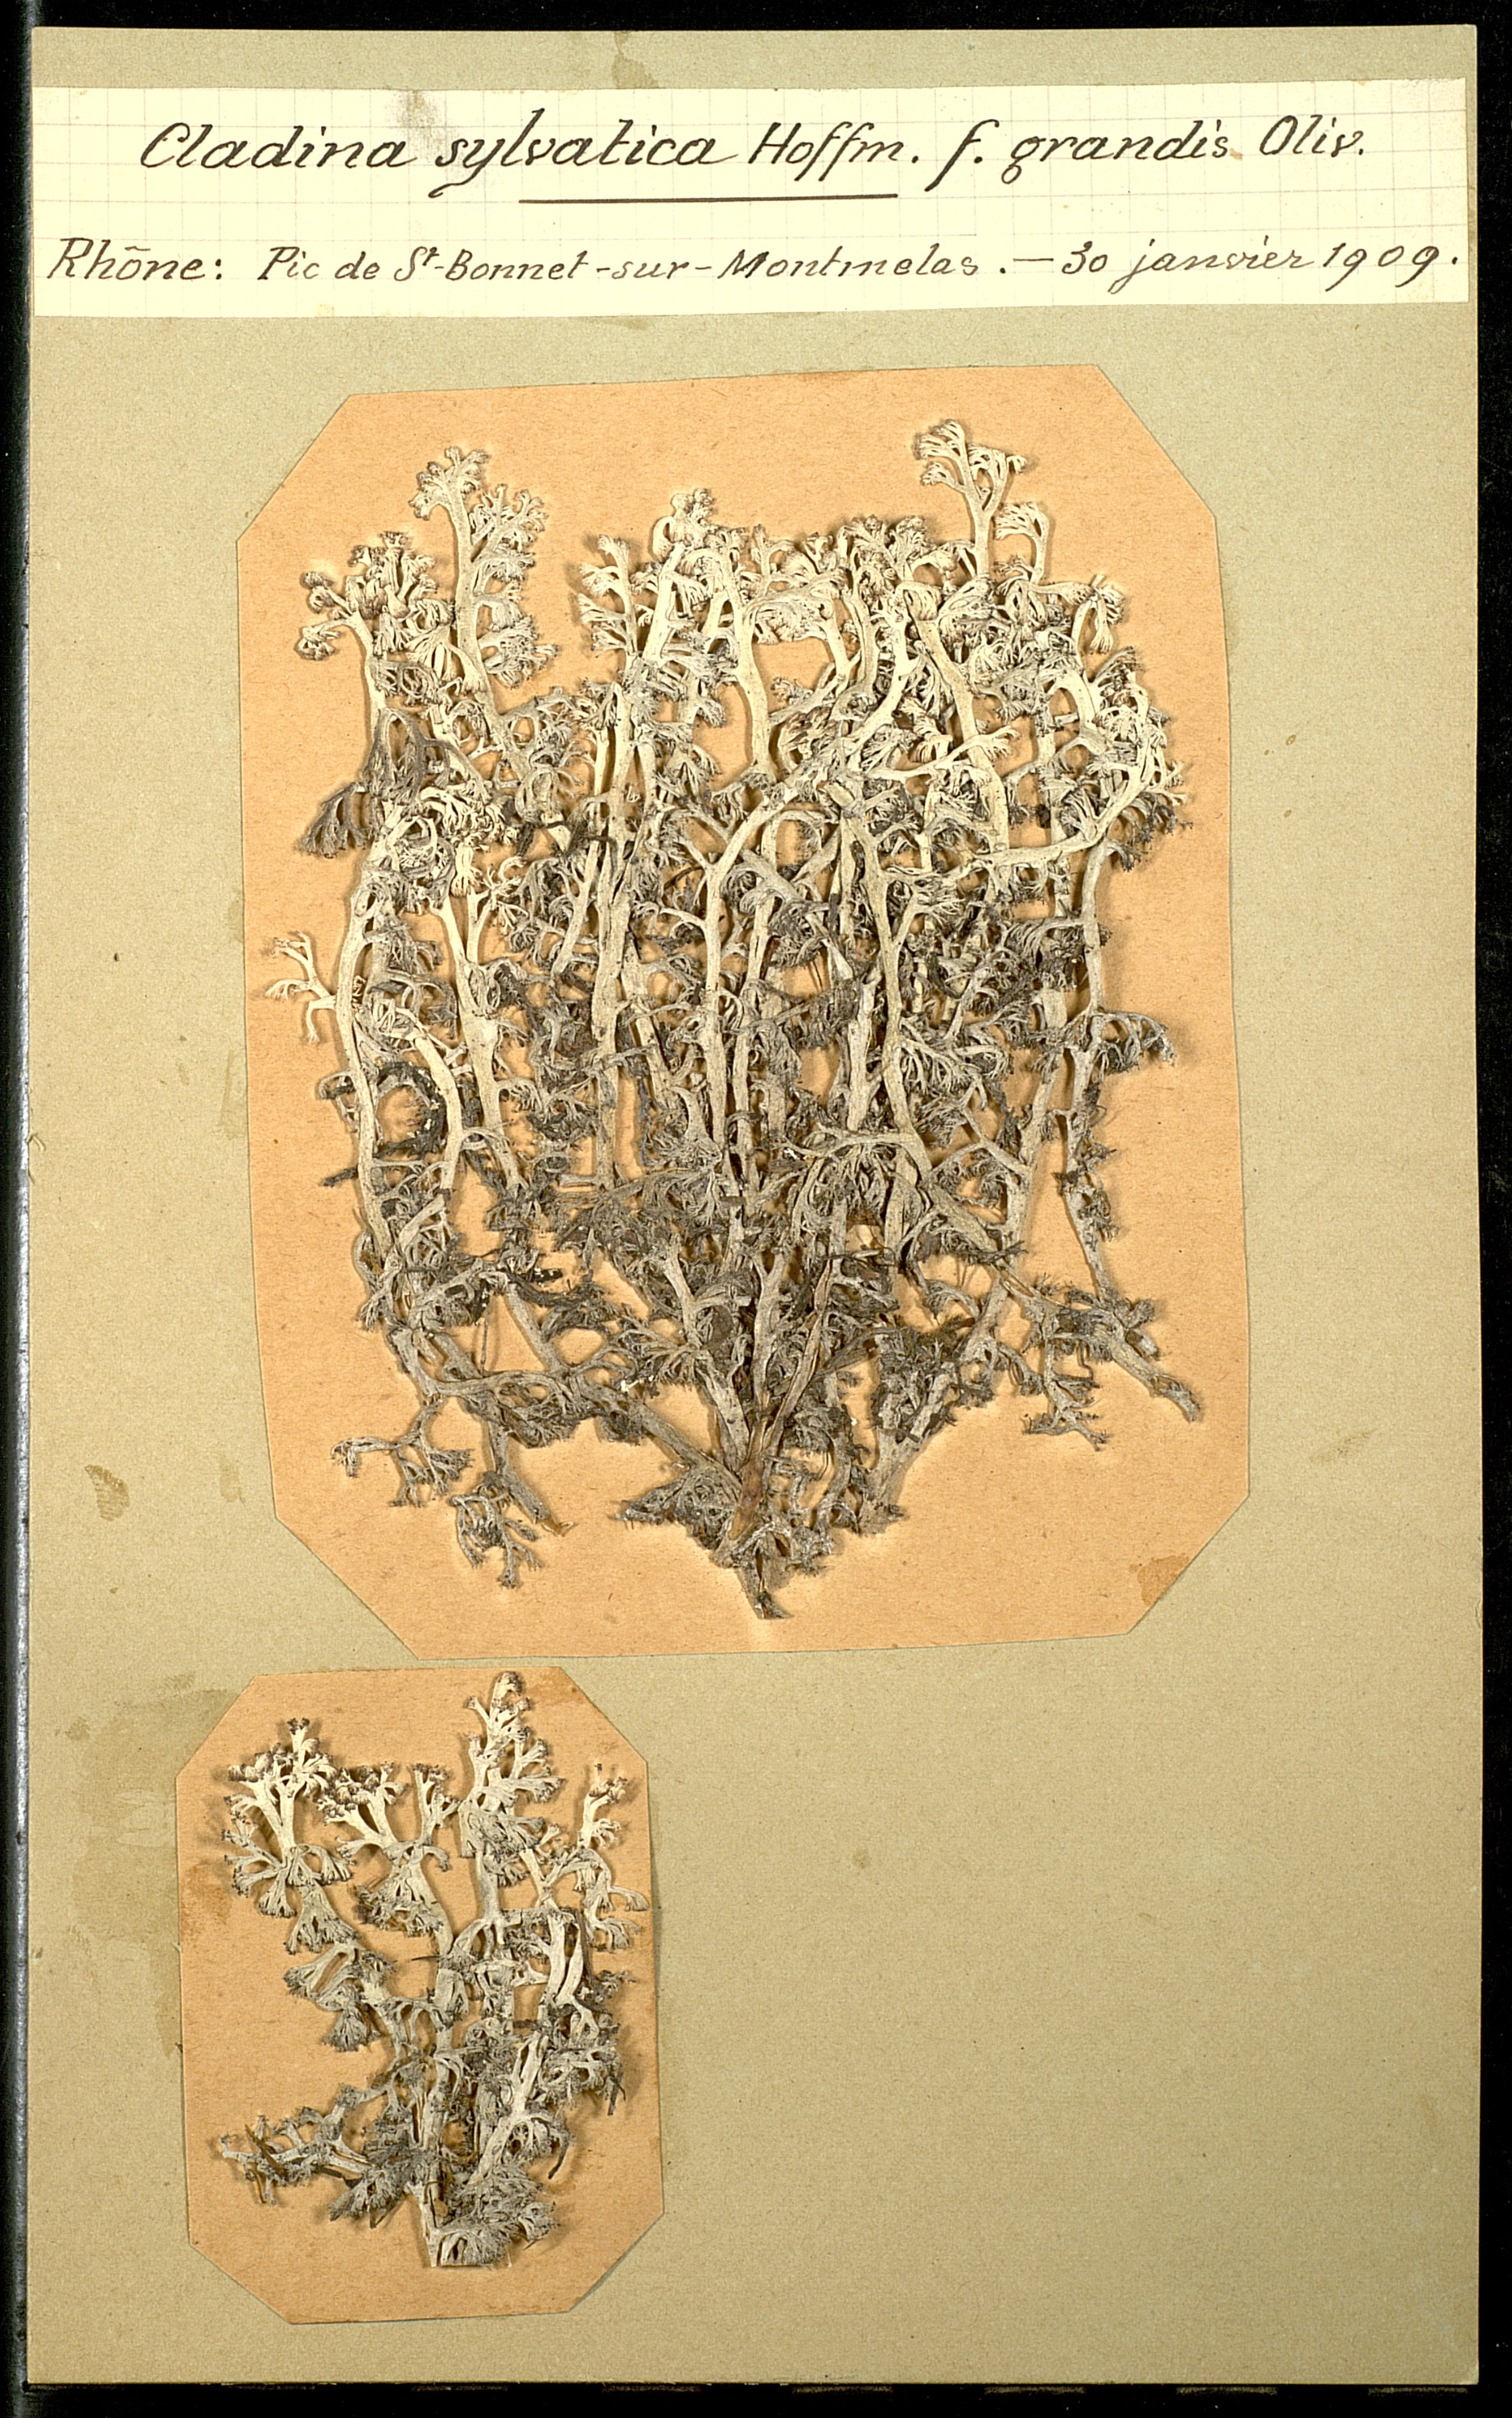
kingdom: Fungi
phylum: Ascomycota
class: Lecanoromycetes
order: Lecanorales
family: Cladoniaceae
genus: Cladonia
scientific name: Cladonia arbuscula
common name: Reindeer lichen
